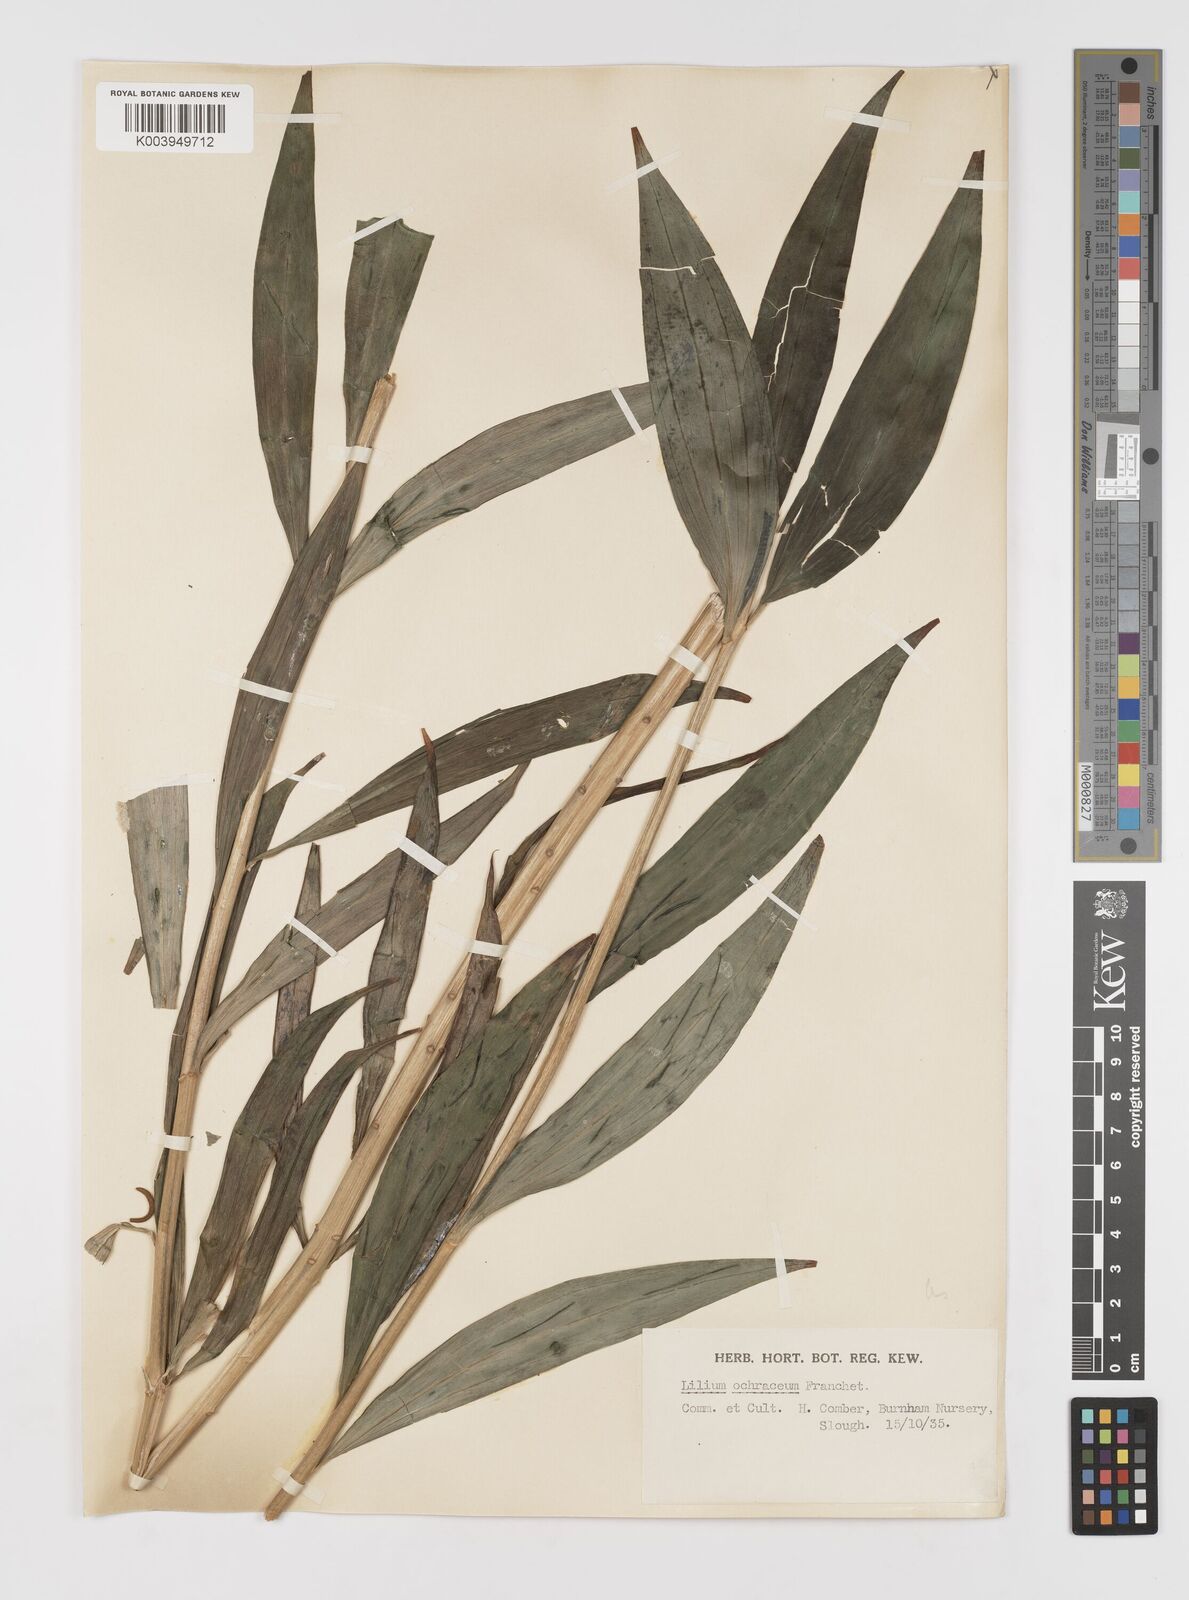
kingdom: Plantae
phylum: Tracheophyta
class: Liliopsida
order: Liliales
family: Liliaceae
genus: Lilium
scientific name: Lilium primulinum
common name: Ochre lily
